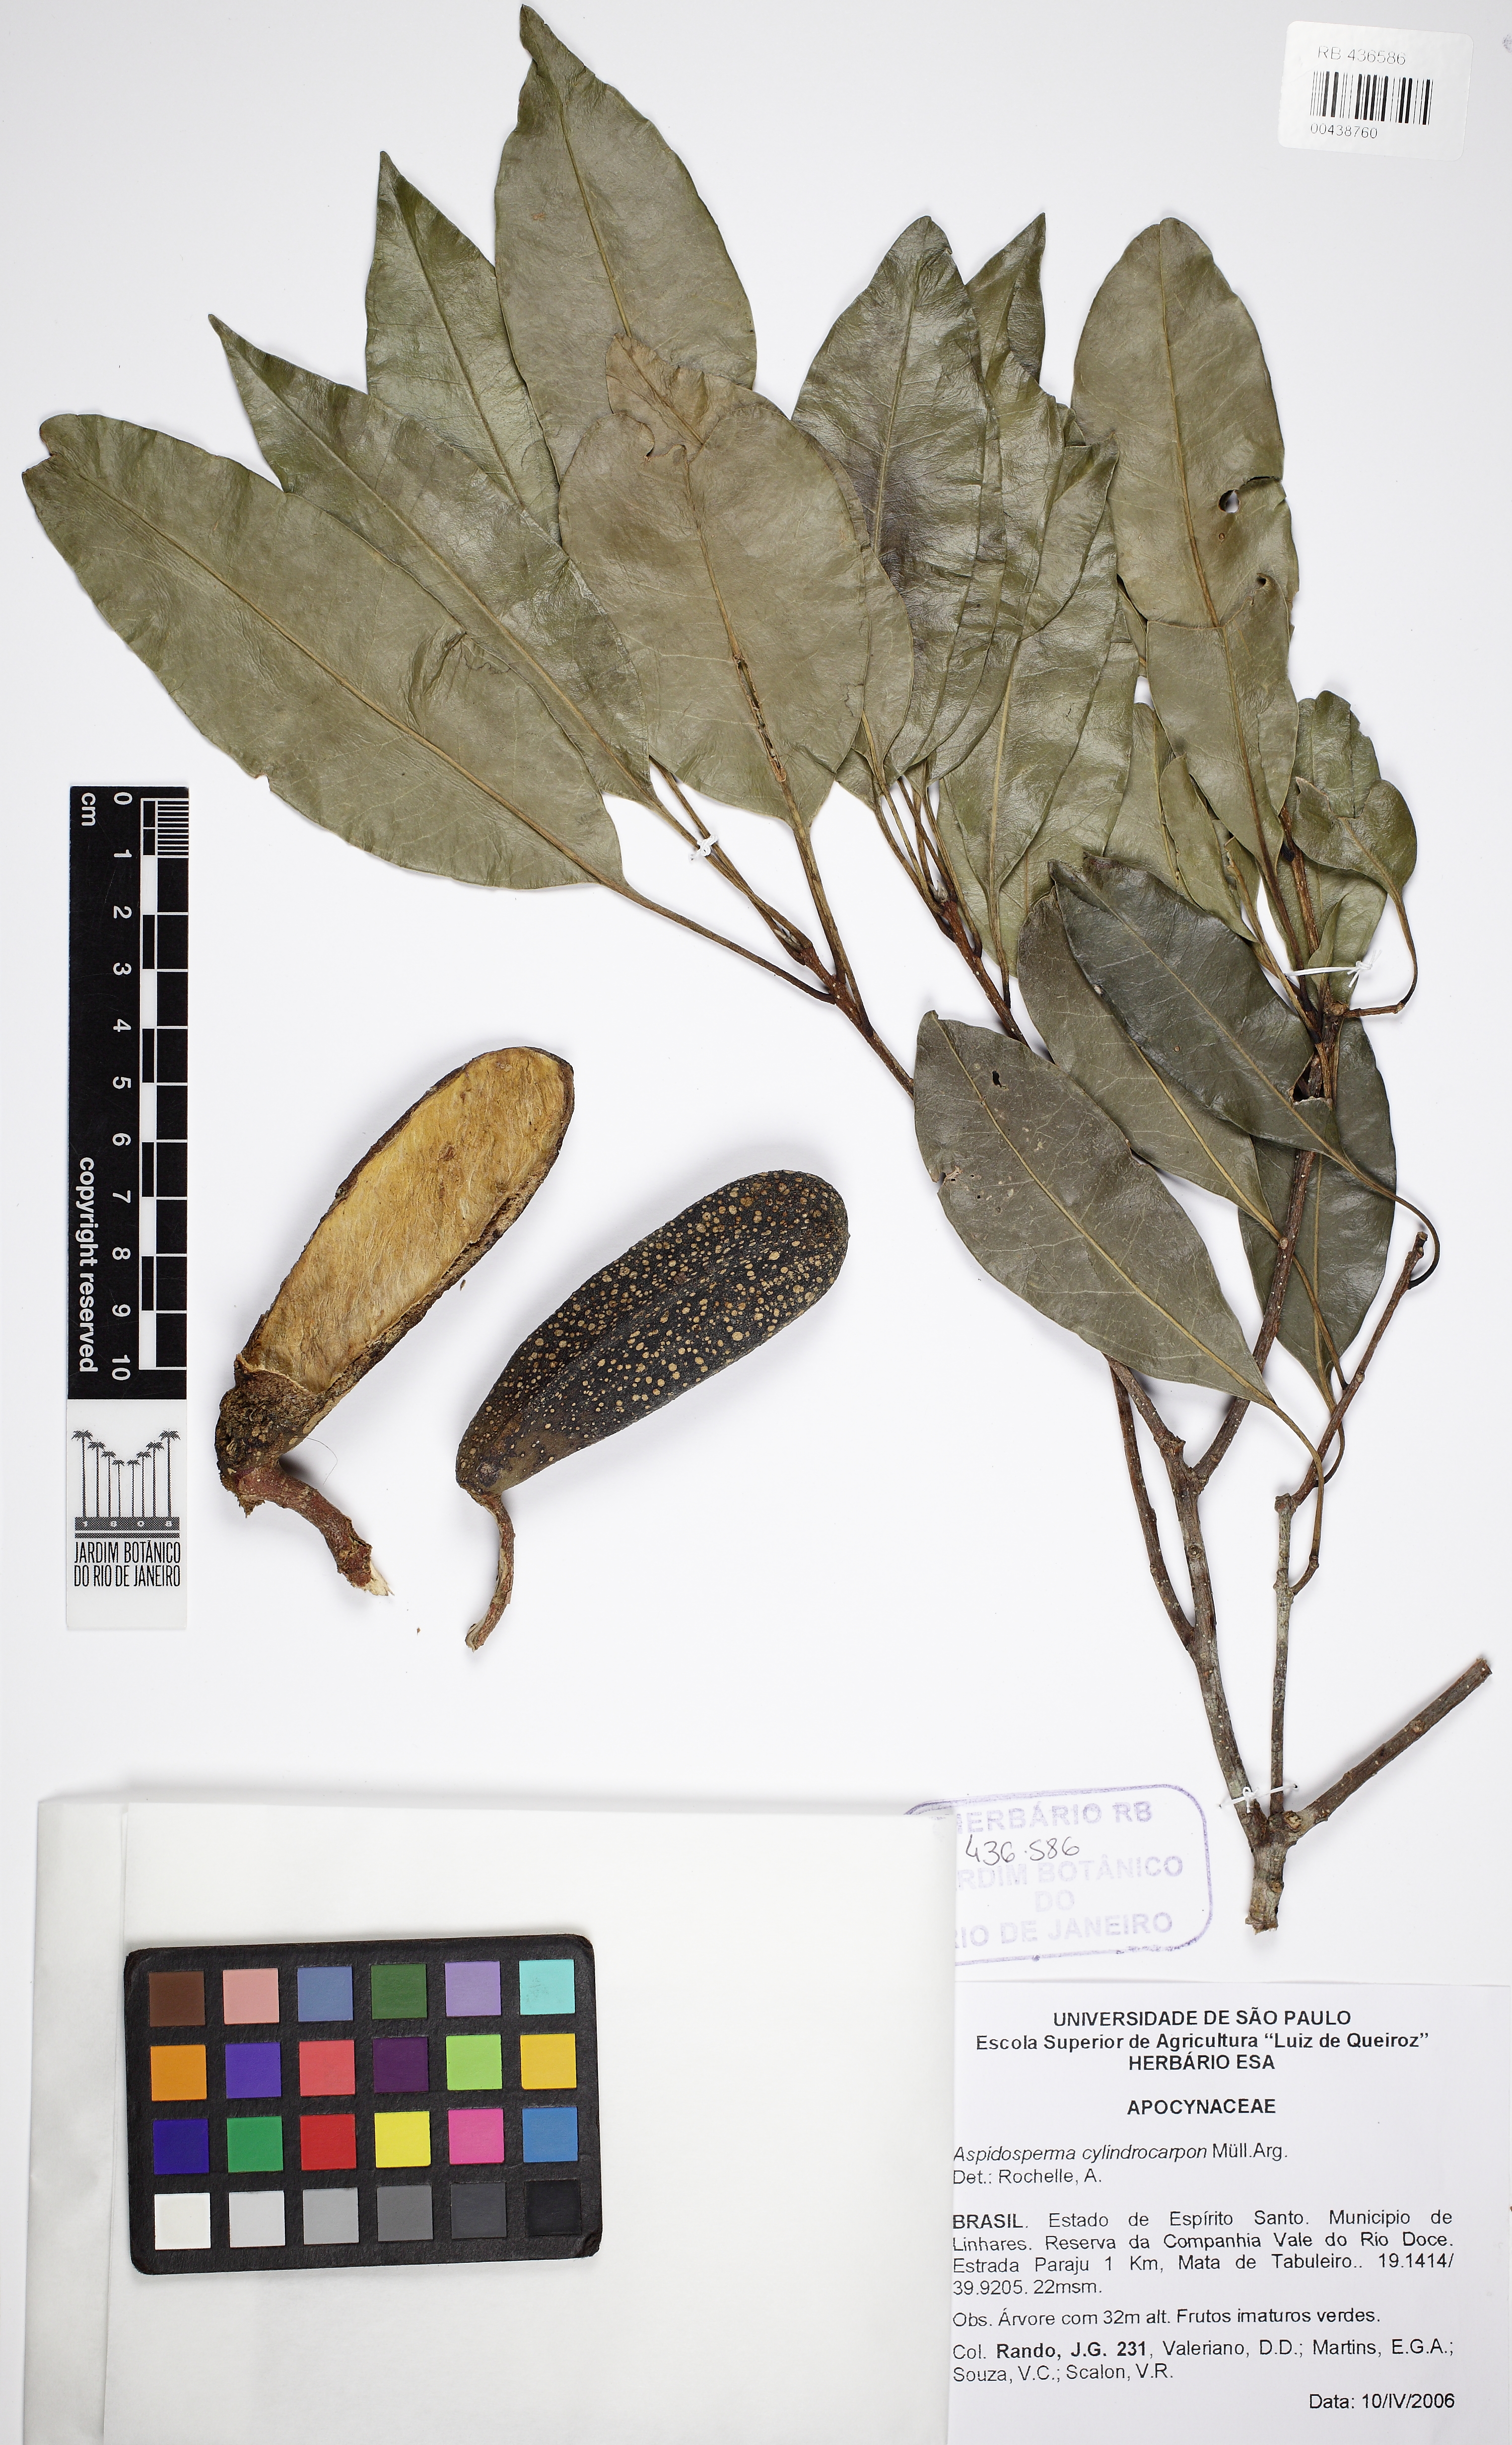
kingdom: Plantae
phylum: Tracheophyta
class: Magnoliopsida
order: Gentianales
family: Apocynaceae
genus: Aspidosperma
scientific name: Aspidosperma cylindrocarpon
